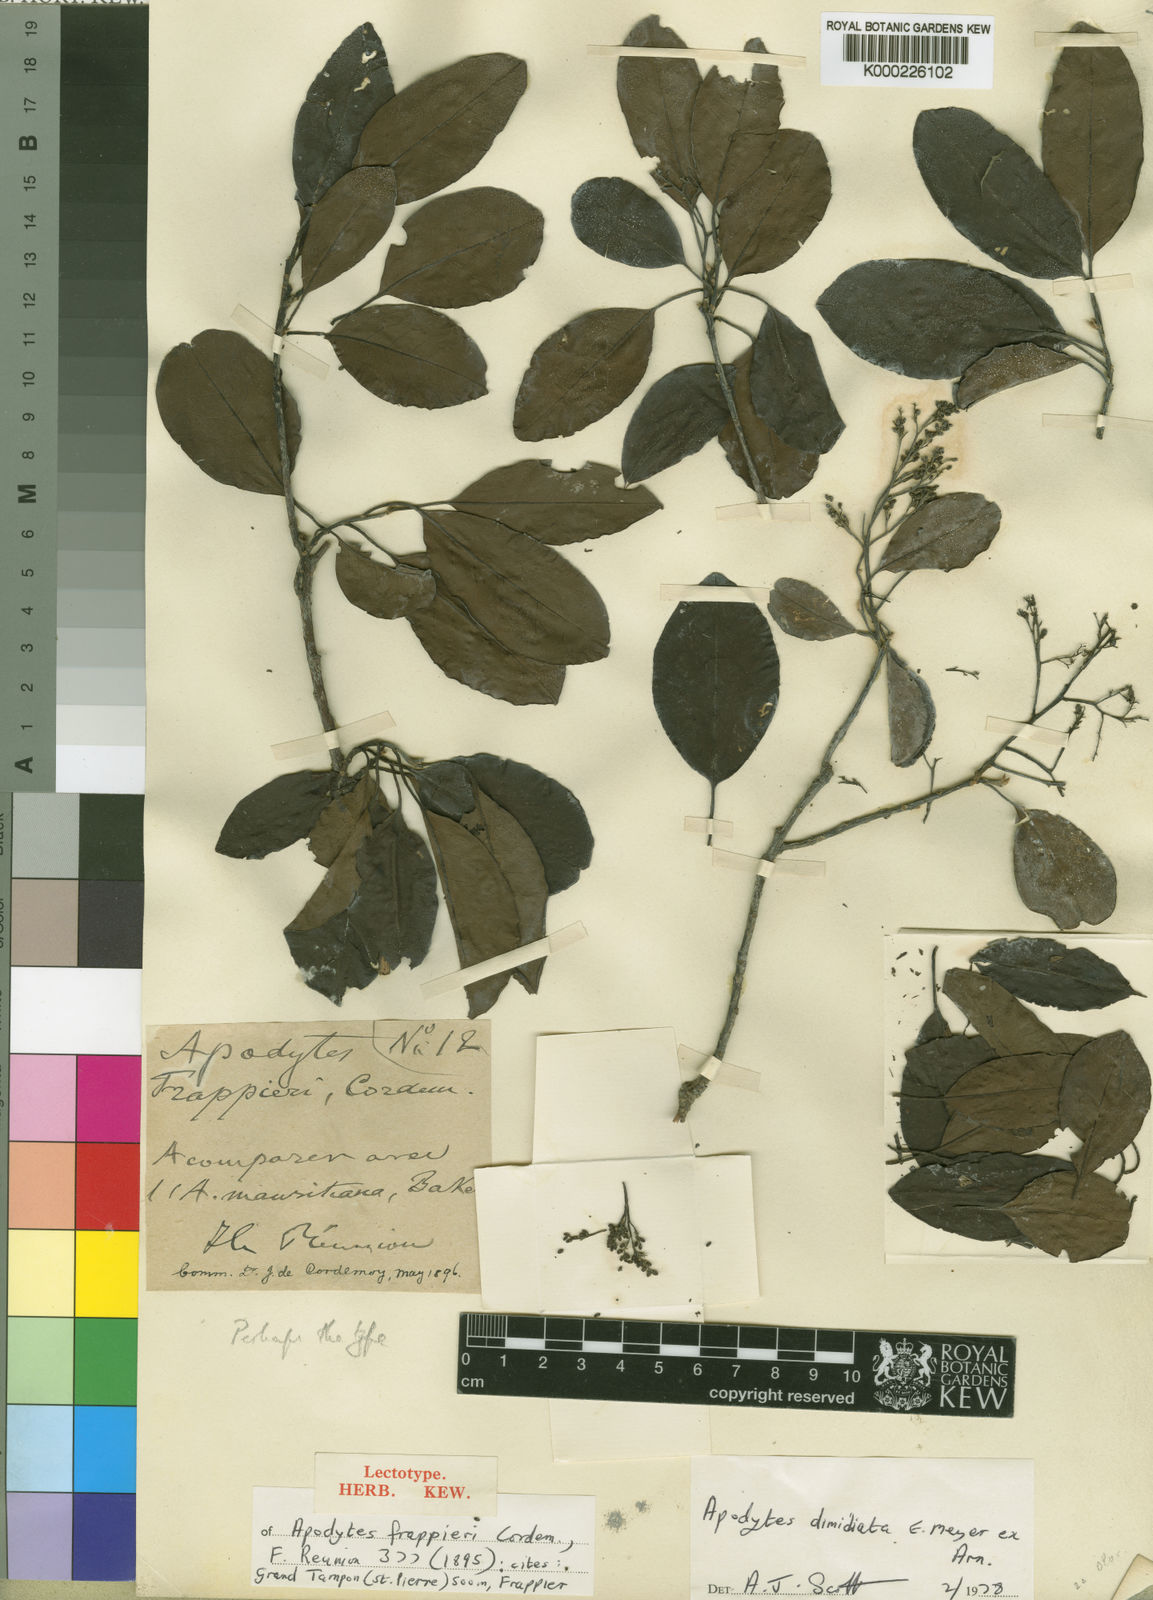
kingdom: Plantae
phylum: Tracheophyta
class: Magnoliopsida
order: Metteniusales
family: Metteniusaceae
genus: Apodytes
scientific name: Apodytes dimidiata
